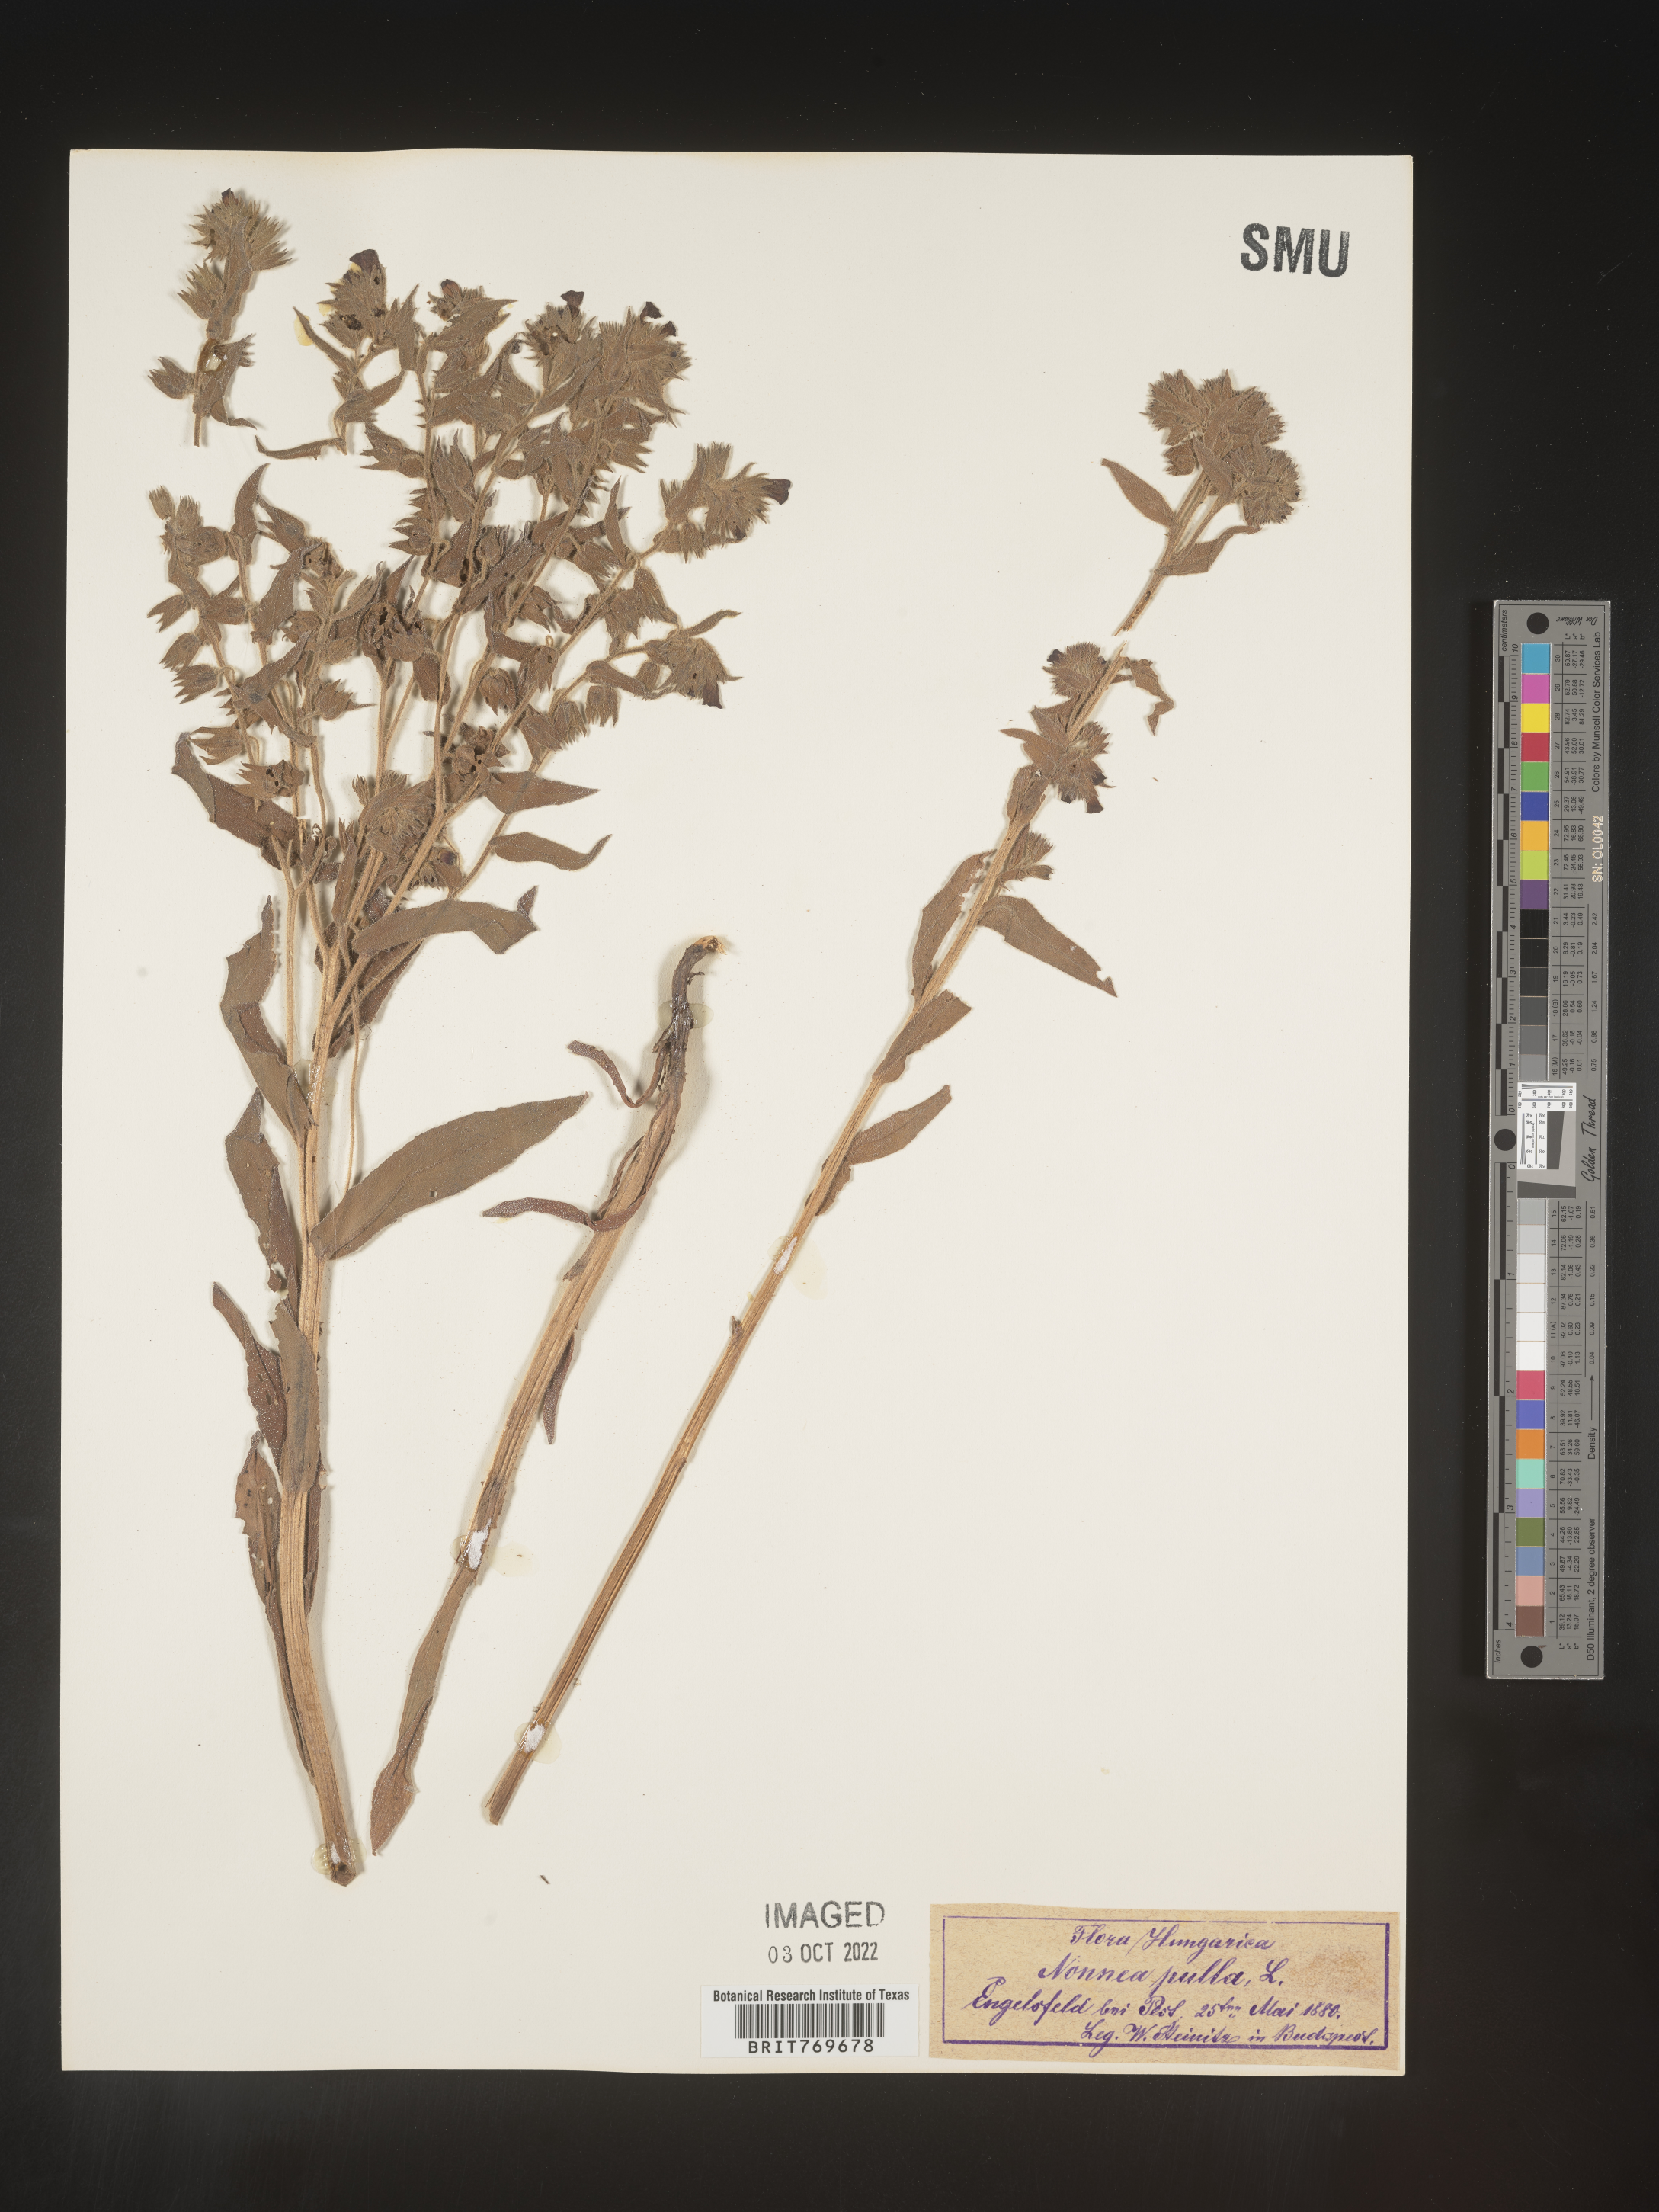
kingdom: Plantae
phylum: Tracheophyta
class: Magnoliopsida
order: Boraginales
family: Boraginaceae
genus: Nonea
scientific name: Nonea lutea
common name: Yellow nonea
